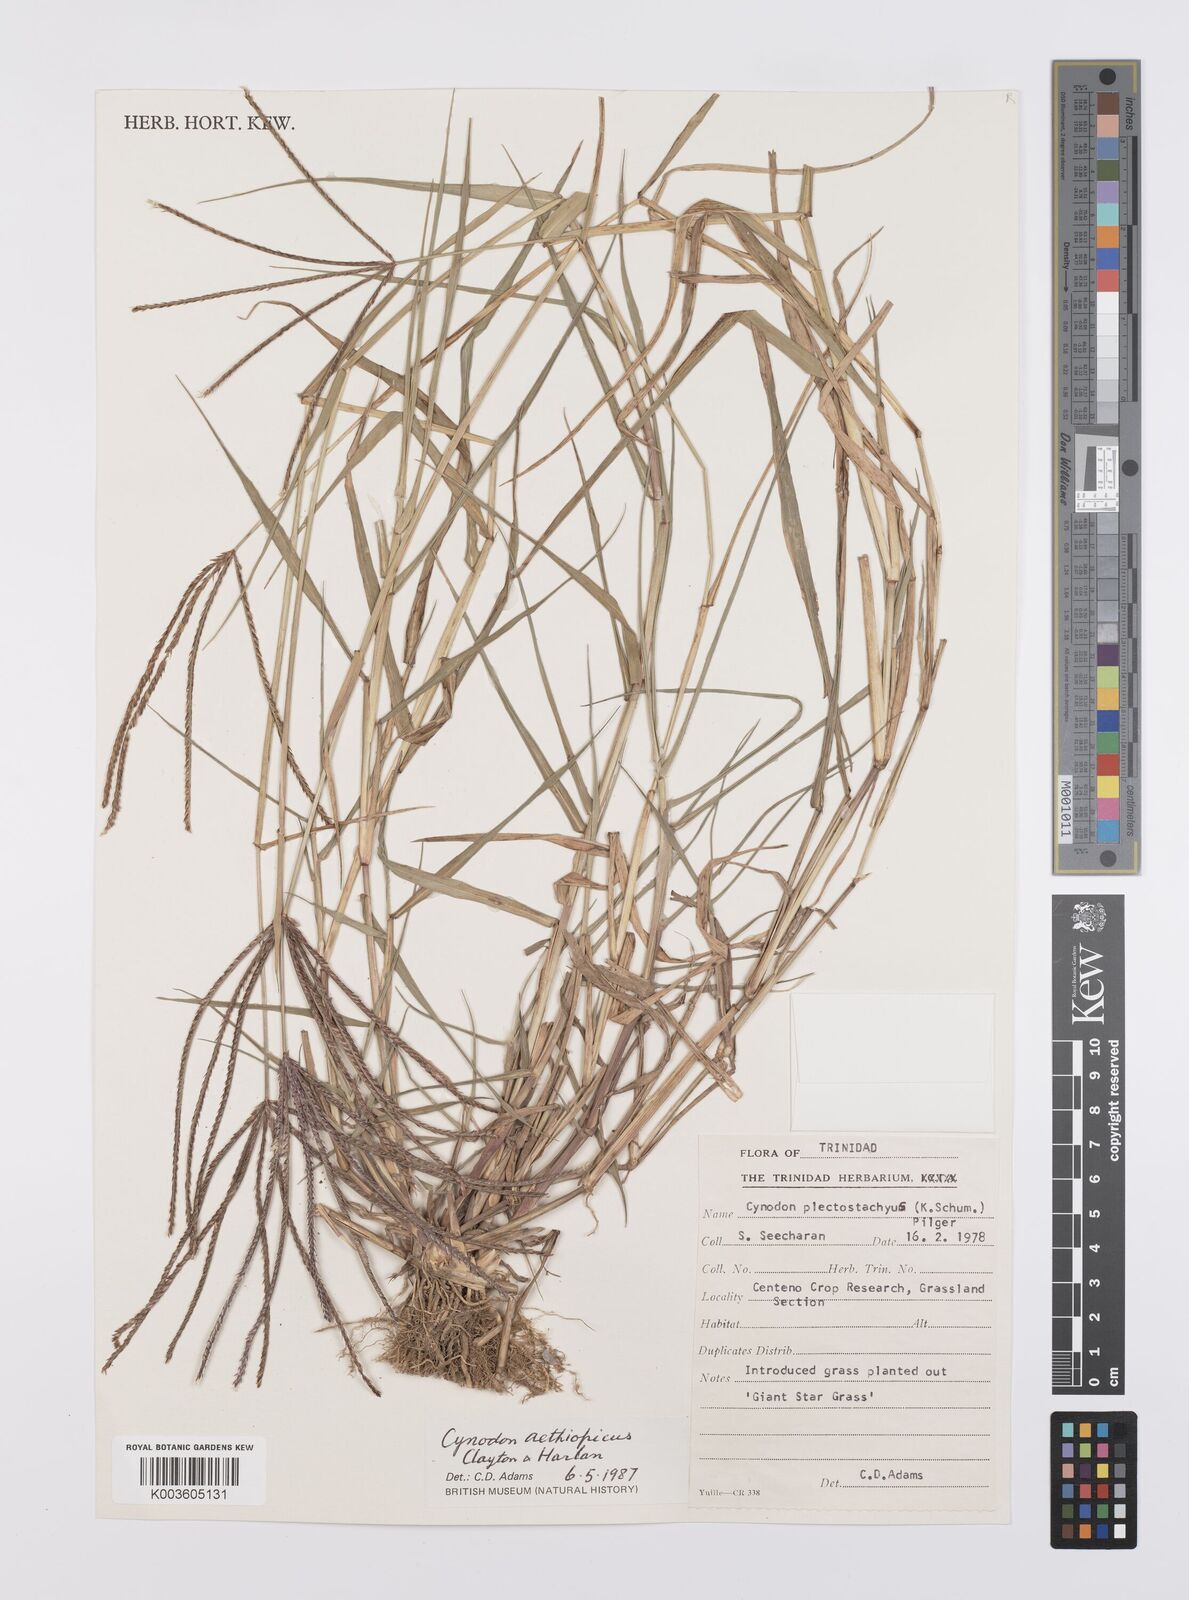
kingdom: Plantae
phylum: Tracheophyta
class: Liliopsida
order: Poales
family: Poaceae
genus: Cynodon
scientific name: Cynodon aethiopicus
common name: Ethiopian dogstooth grass
